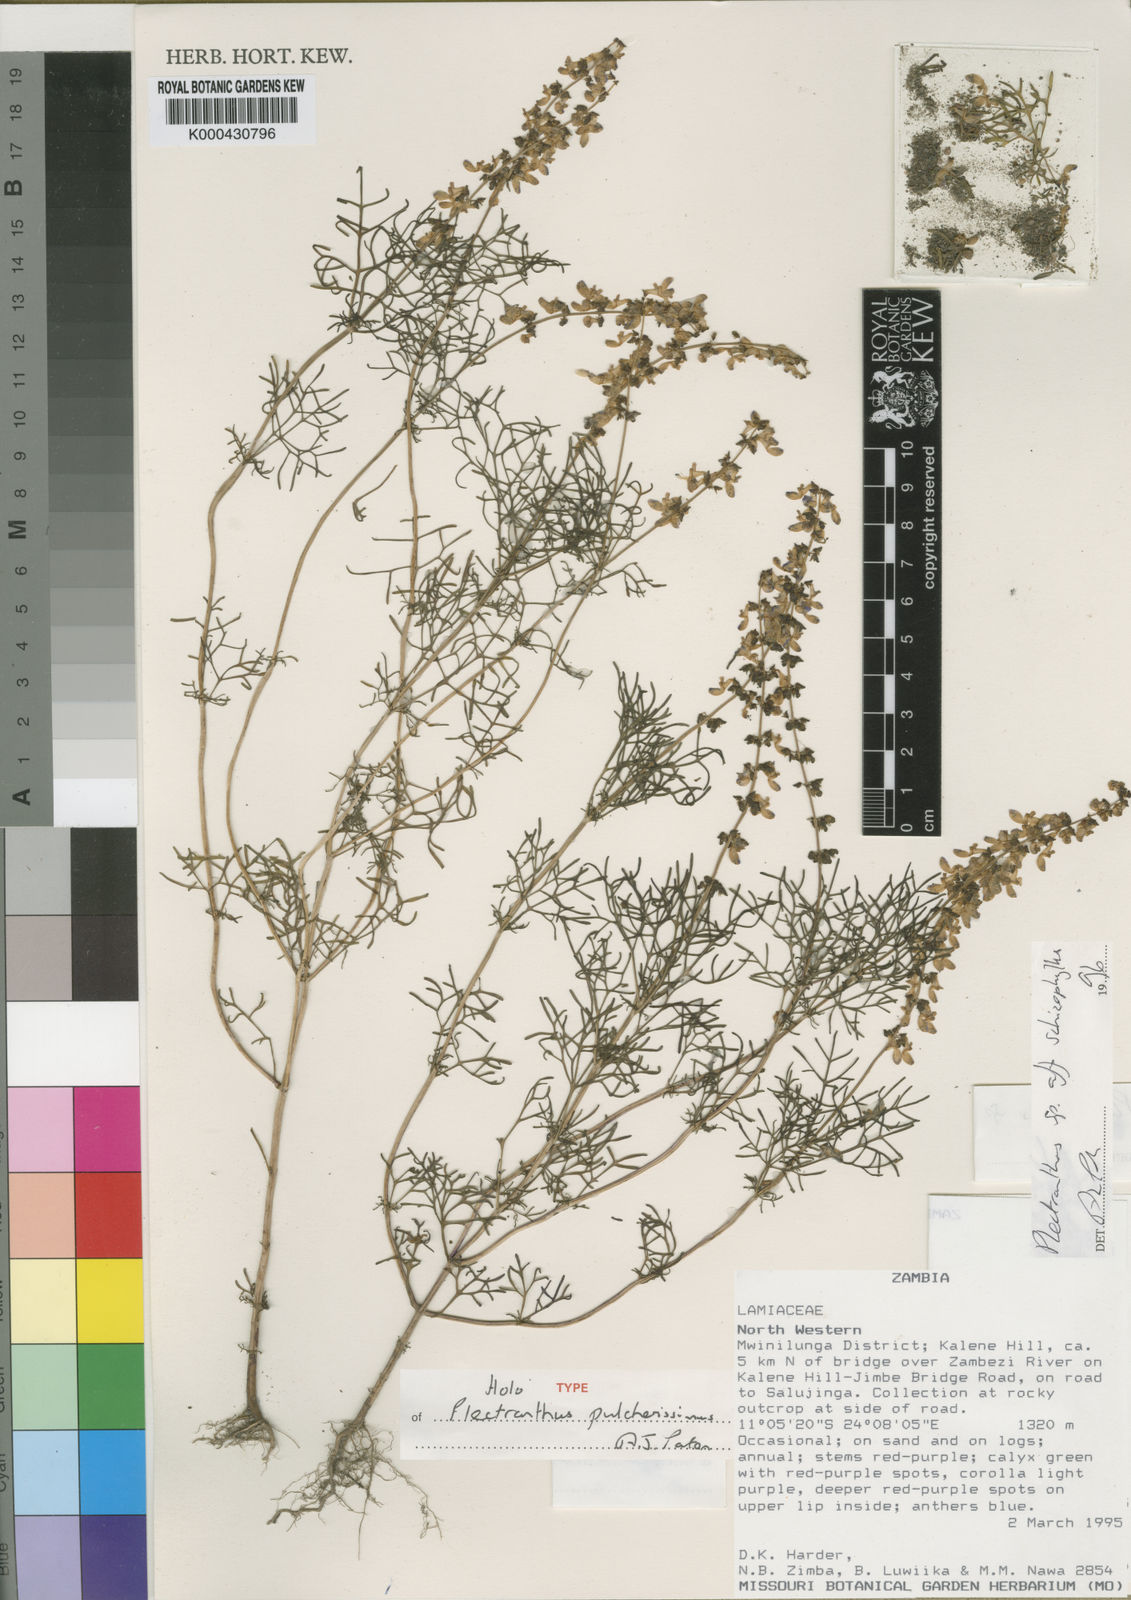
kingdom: Plantae
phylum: Tracheophyta
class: Magnoliopsida
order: Lamiales
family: Lamiaceae
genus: Equilabium
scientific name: Equilabium pulcherissimum
